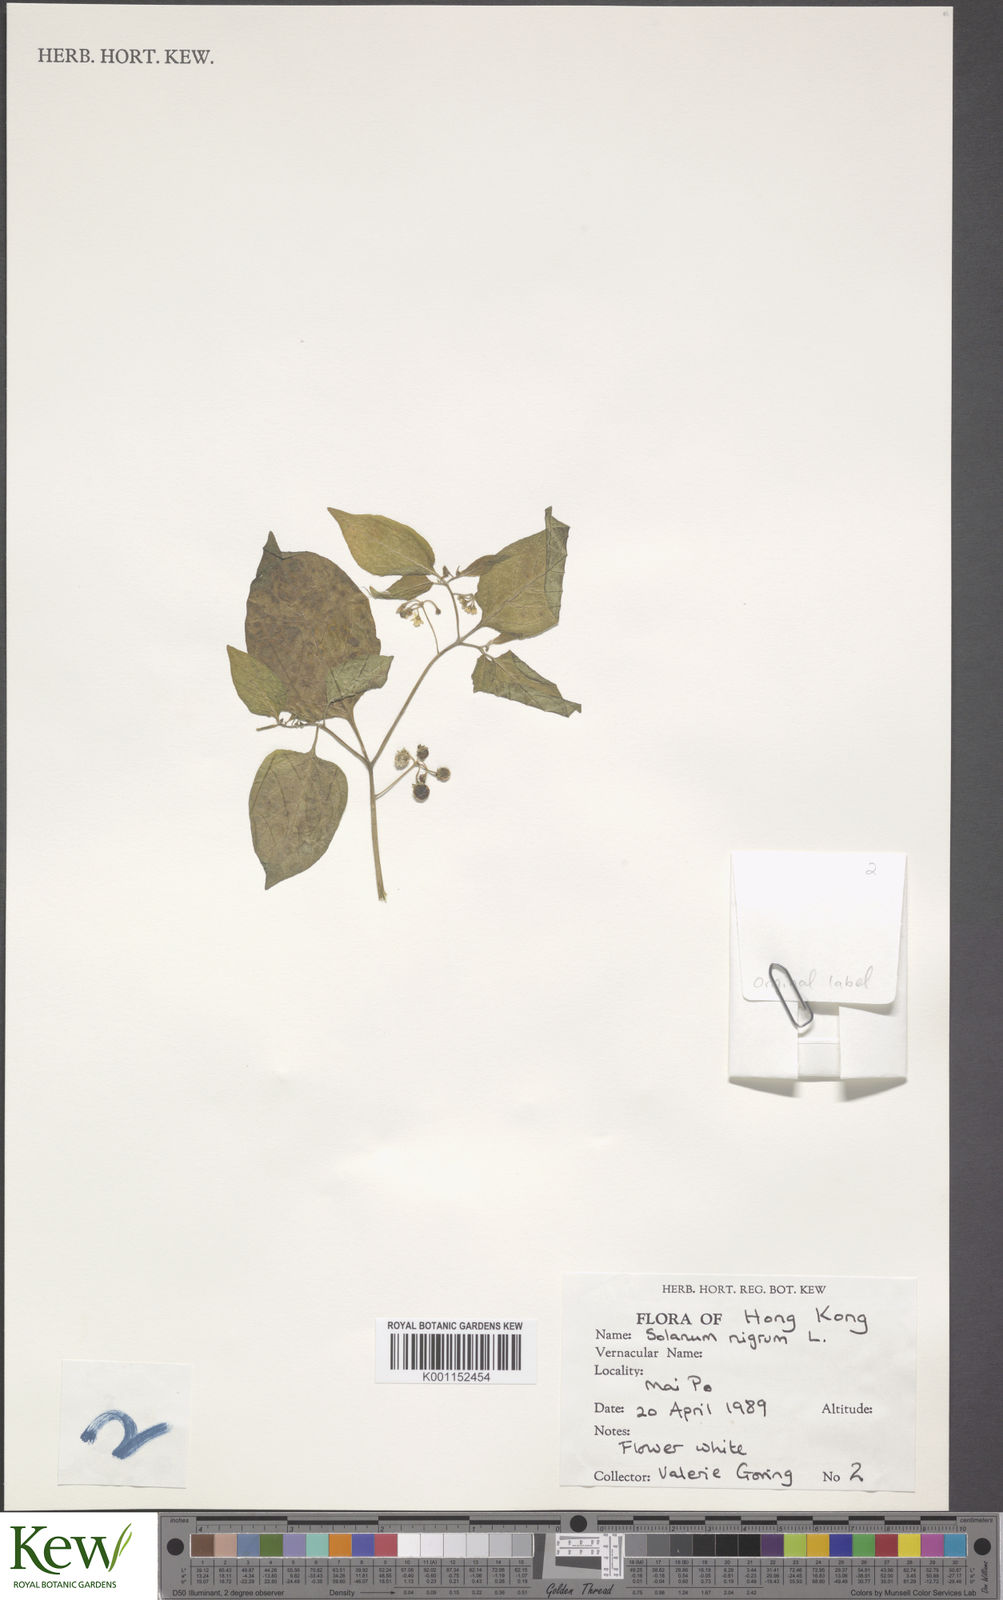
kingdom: Plantae
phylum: Tracheophyta
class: Magnoliopsida
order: Solanales
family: Solanaceae
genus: Solanum
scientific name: Solanum americanum
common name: American black nightshade
